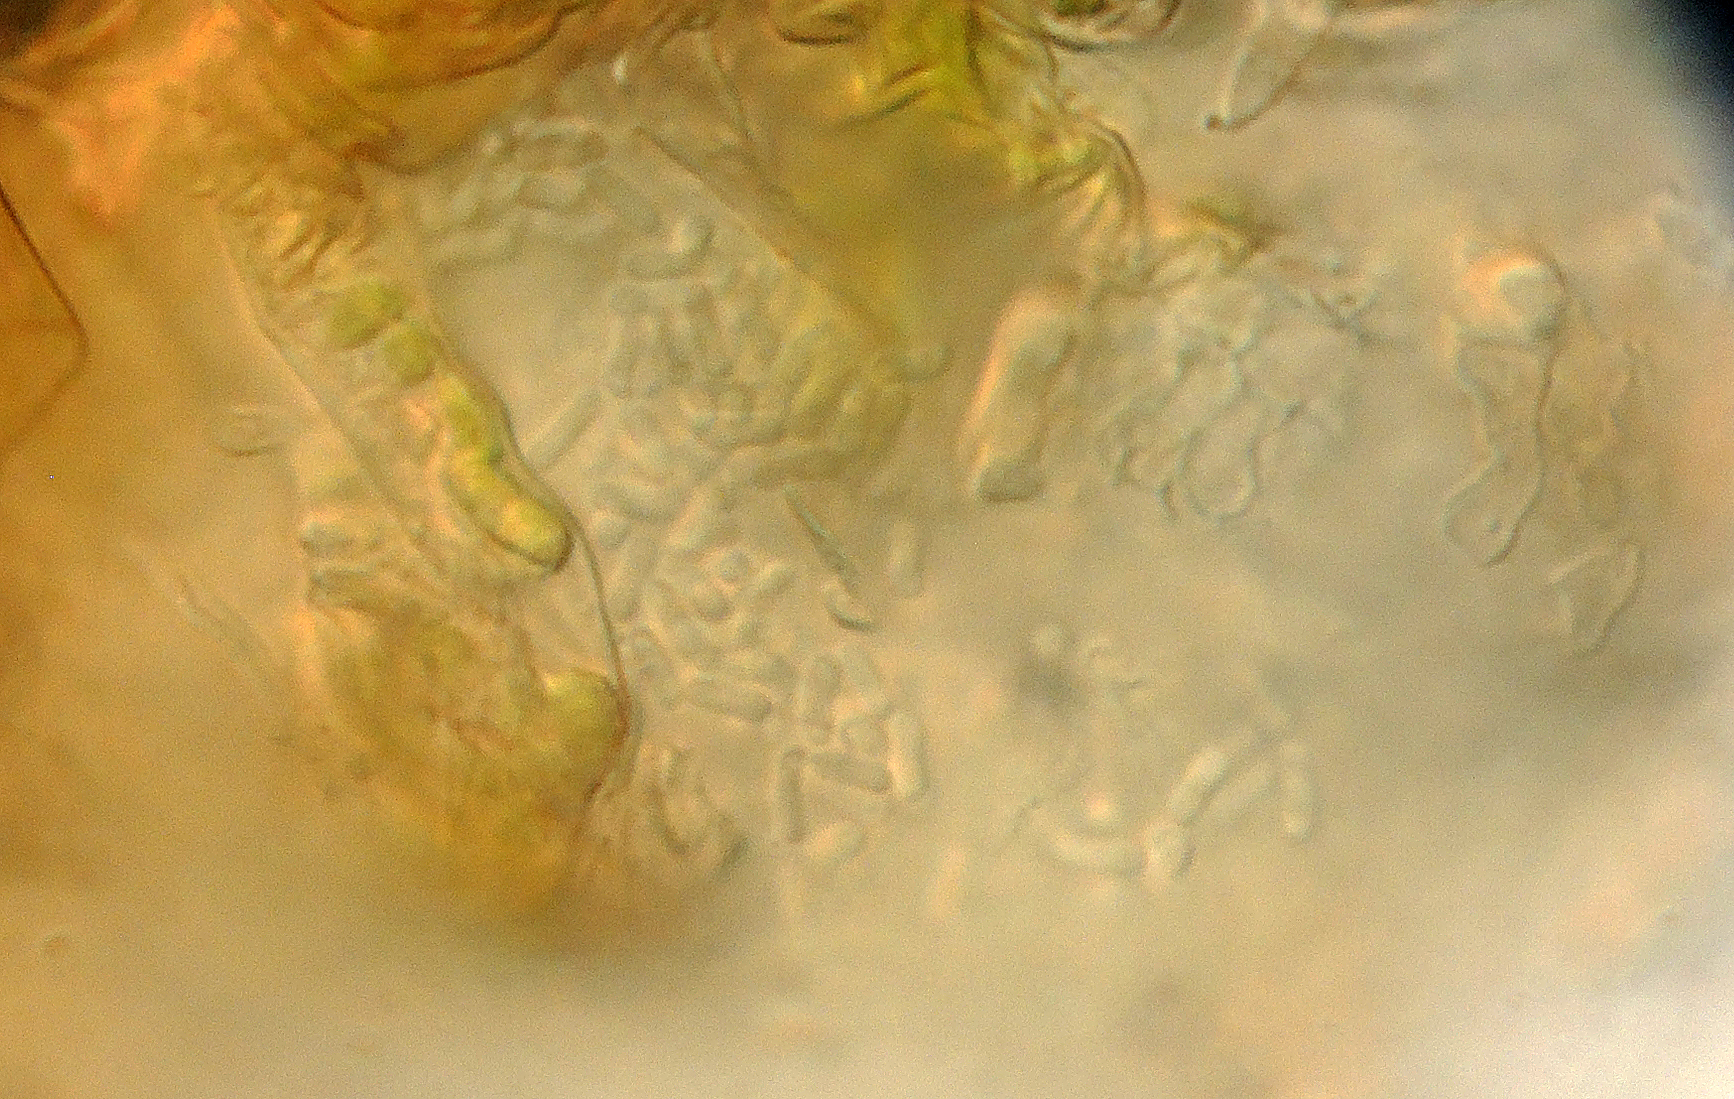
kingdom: Fungi
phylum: Ascomycota
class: Dothideomycetes
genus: Asteromella
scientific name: Asteromella cynanchicola
